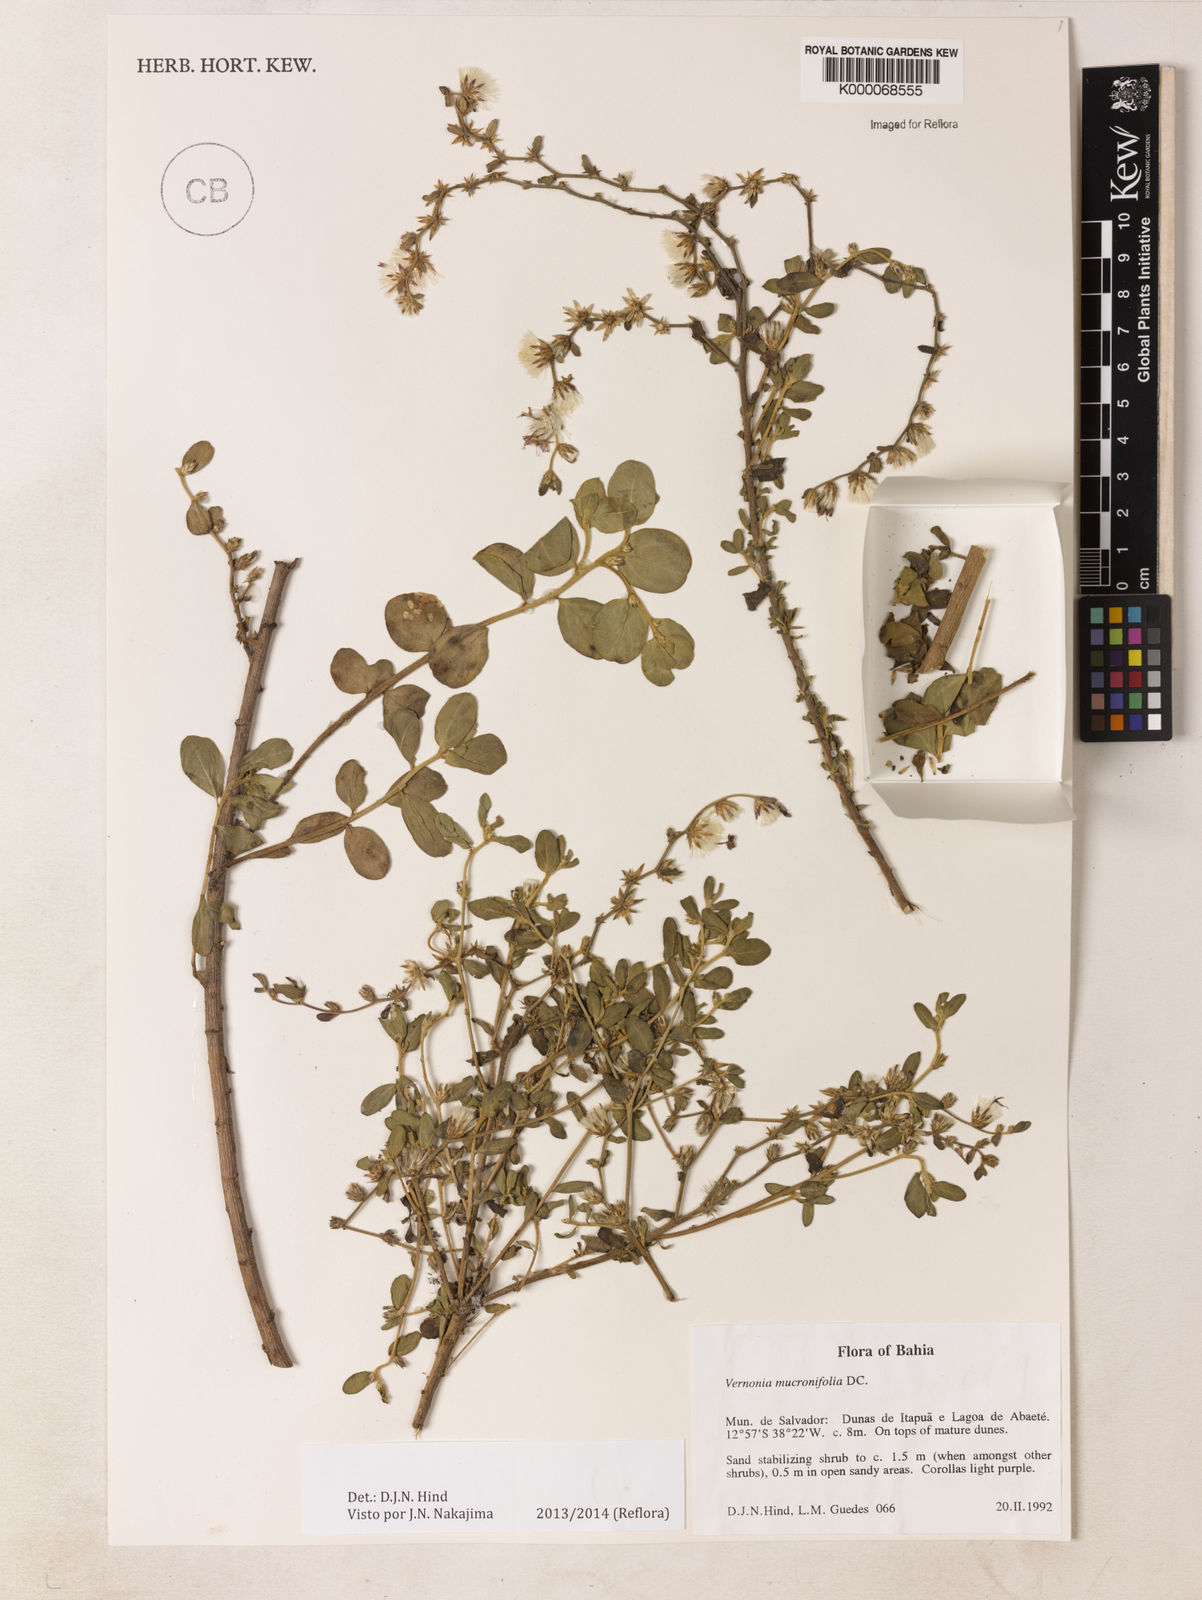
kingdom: Plantae
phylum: Tracheophyta
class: Magnoliopsida
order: Asterales
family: Asteraceae
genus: Lepidaploa
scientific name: Lepidaploa mucronifolia
